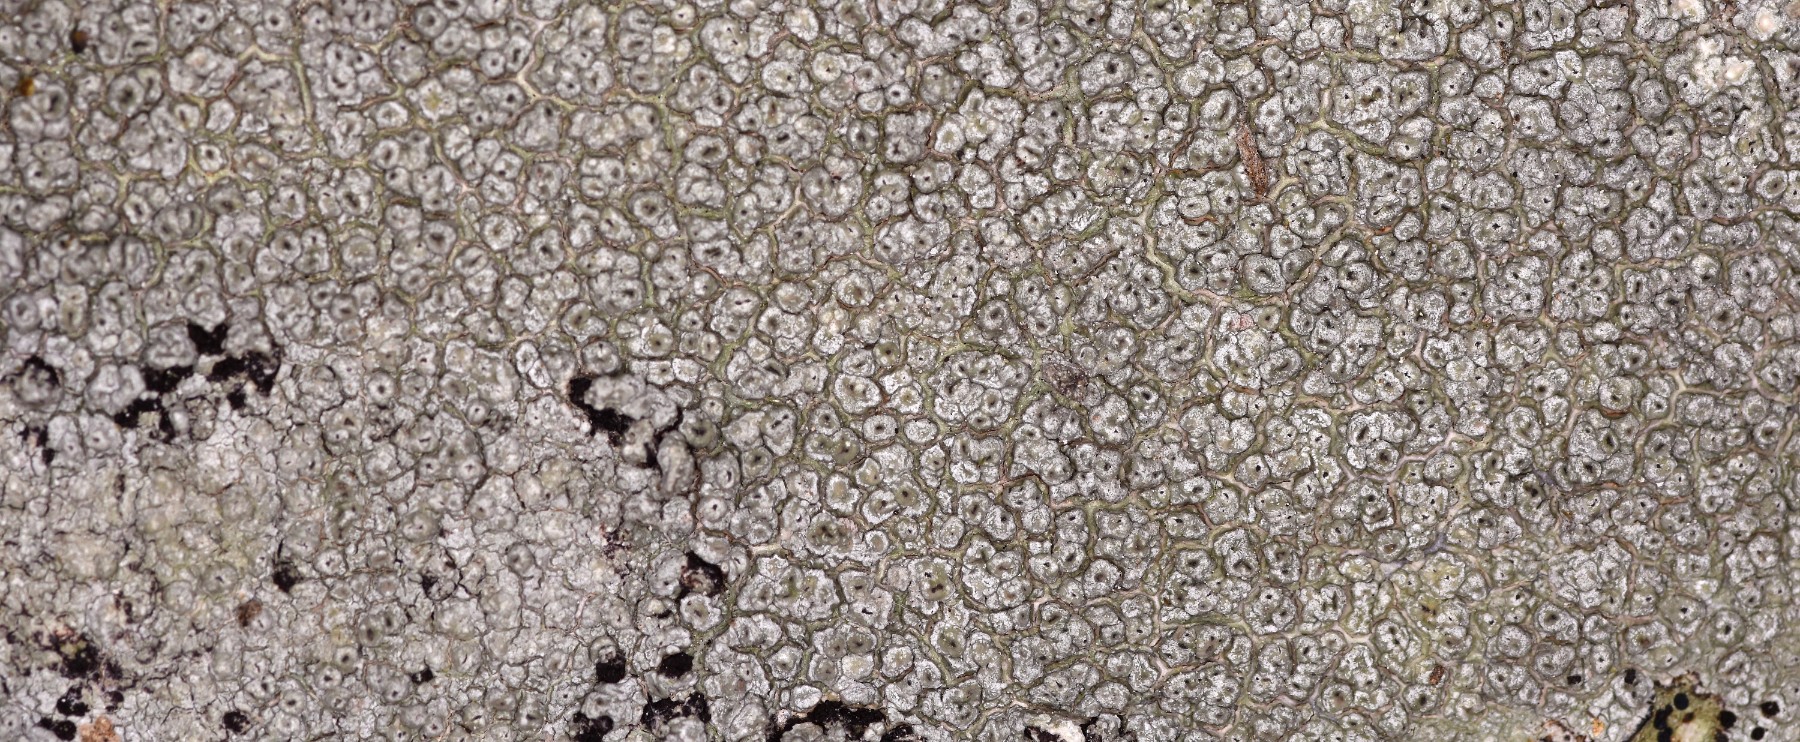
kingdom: Fungi
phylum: Ascomycota
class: Lecanoromycetes
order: Pertusariales
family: Pertusariaceae
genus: Pertusaria
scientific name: Pertusaria hymenea
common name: åben prikvortelav
